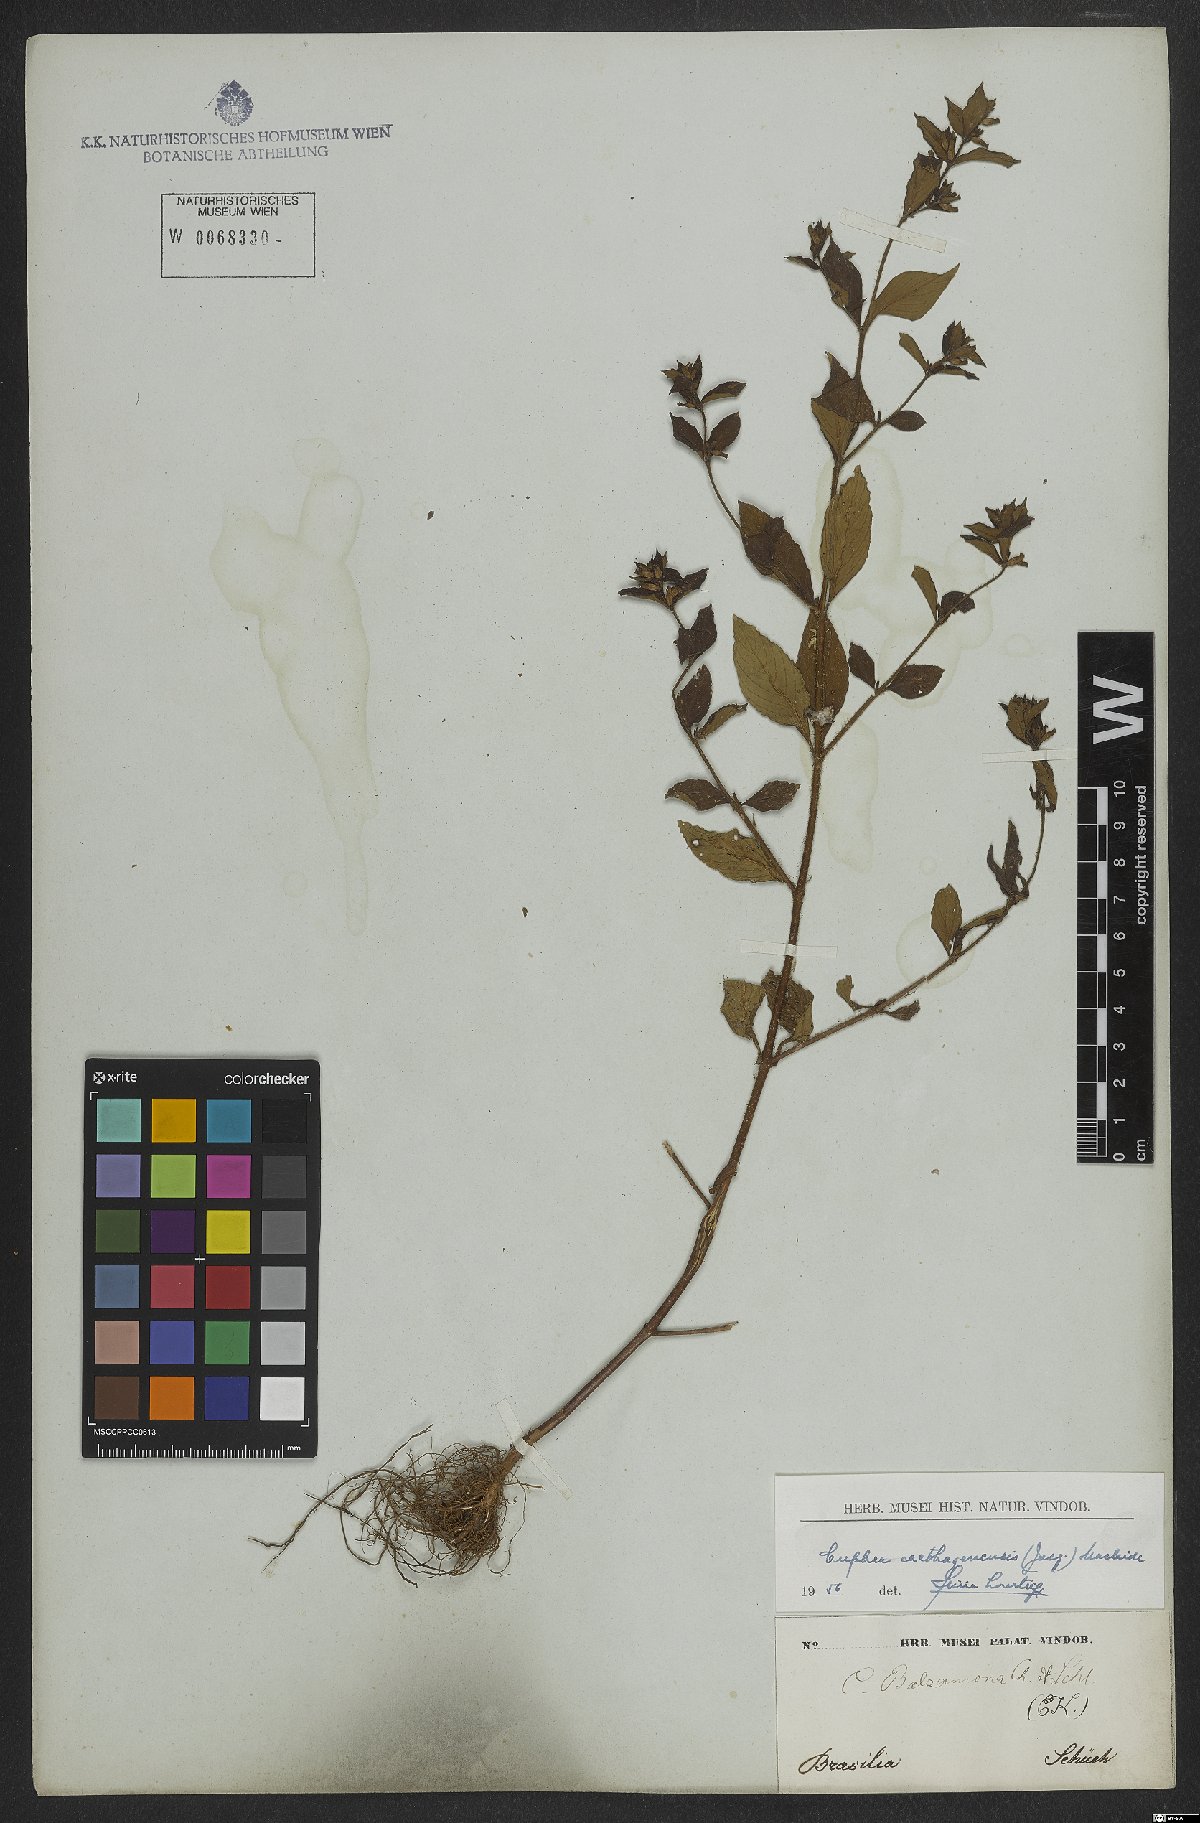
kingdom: Plantae
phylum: Tracheophyta
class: Magnoliopsida
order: Myrtales
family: Lythraceae
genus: Cuphea
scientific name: Cuphea carthagenensis
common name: Colombian waxweed
